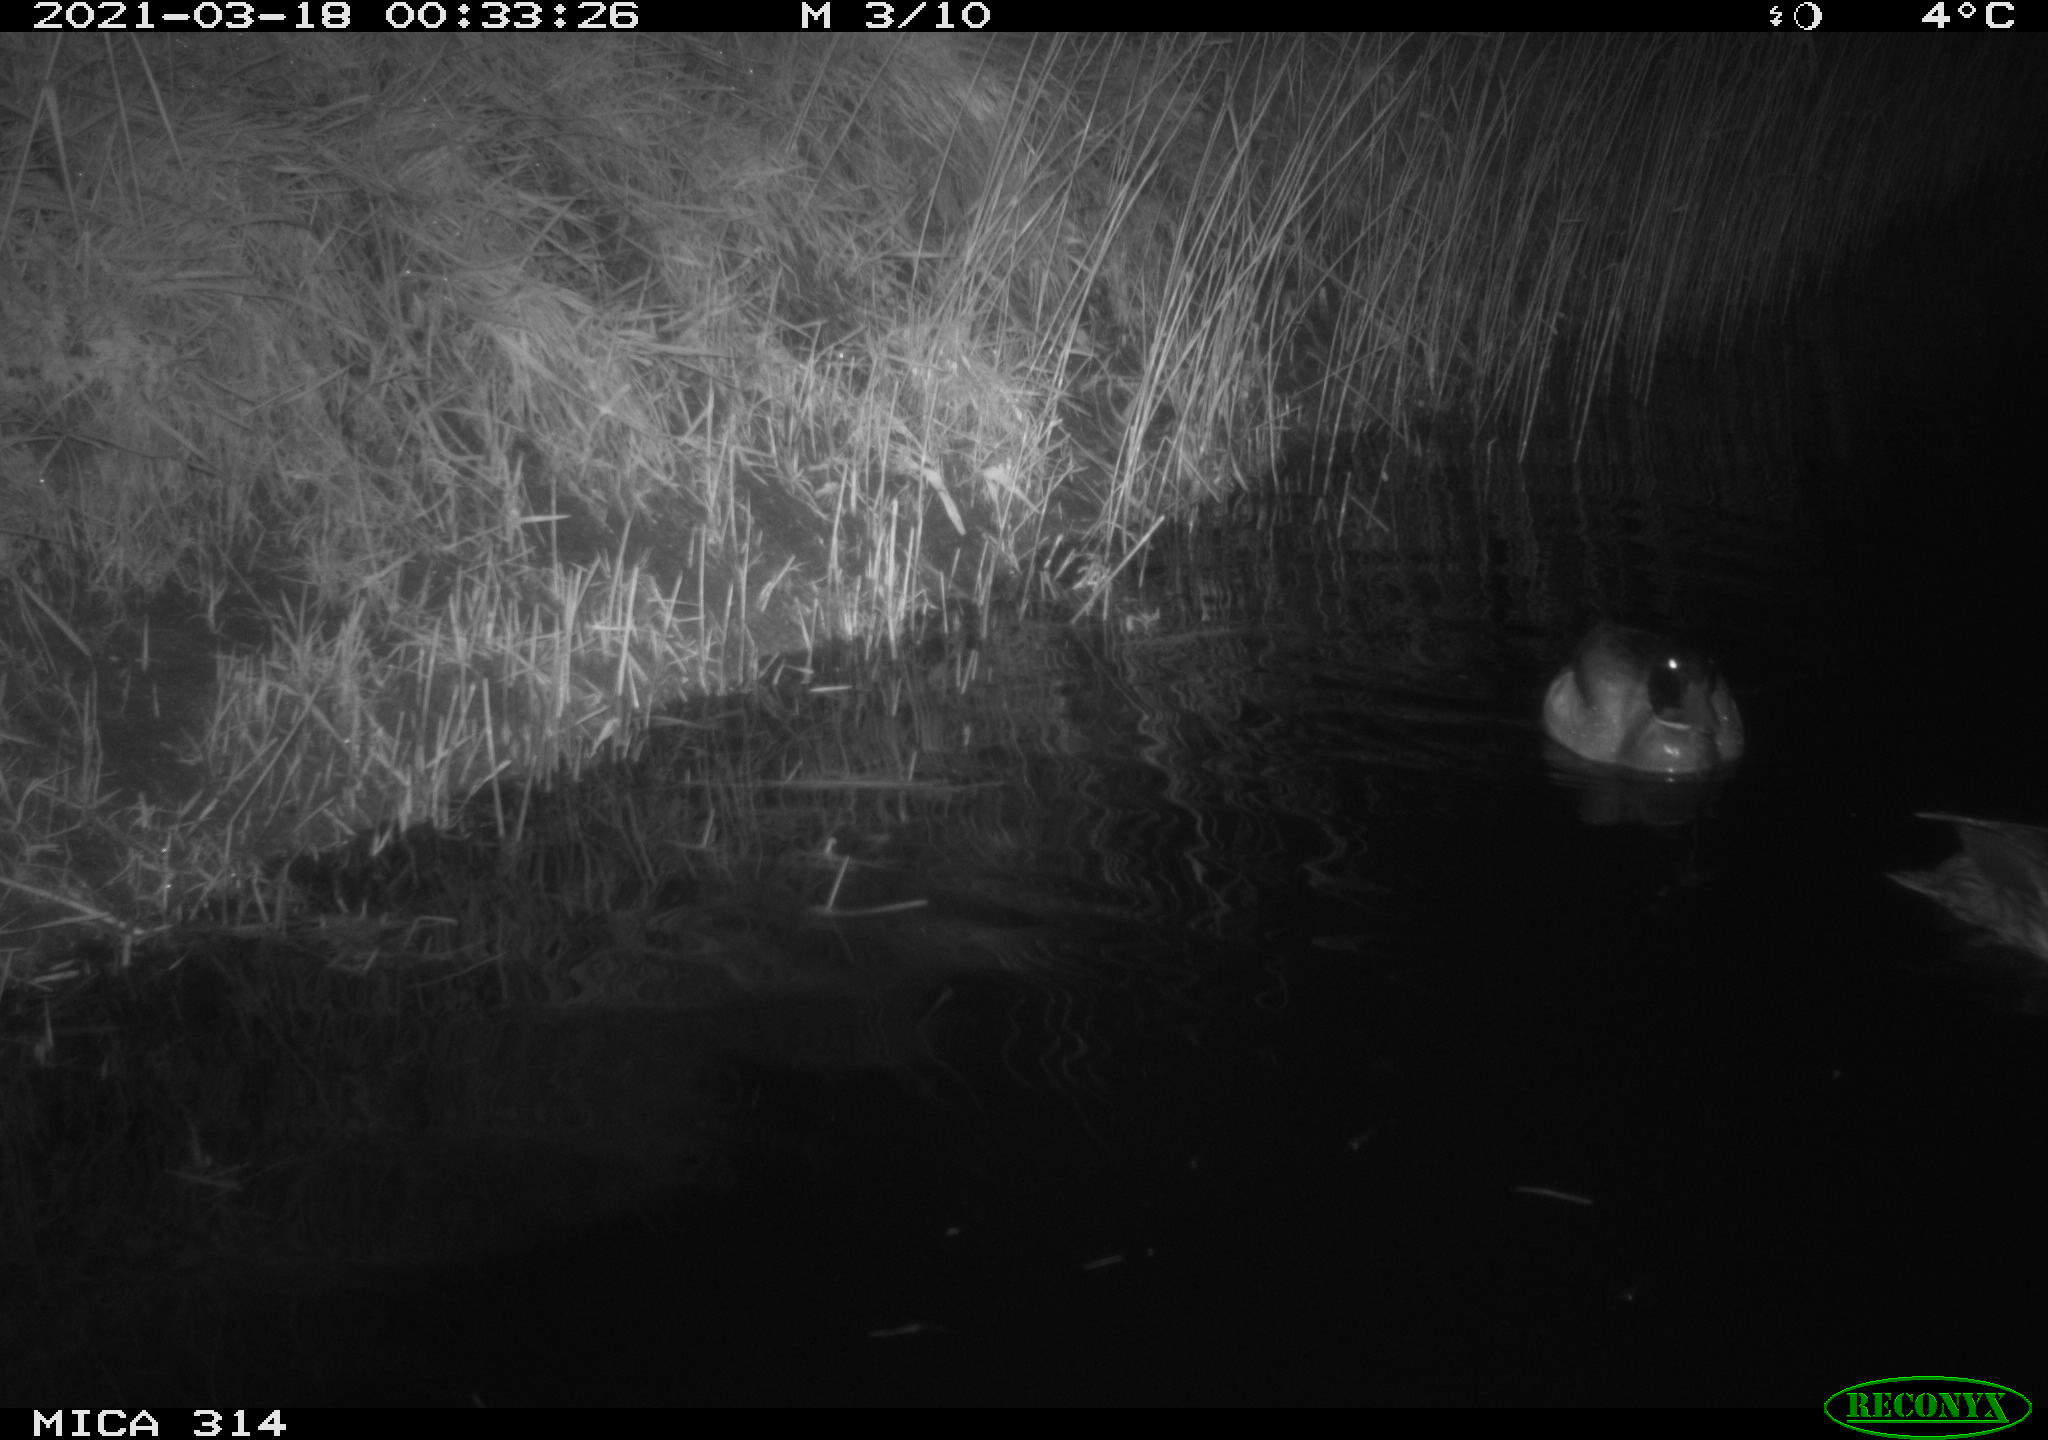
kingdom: Animalia
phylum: Chordata
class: Aves
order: Anseriformes
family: Anatidae
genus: Anas
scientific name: Anas platyrhynchos
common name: Mallard
